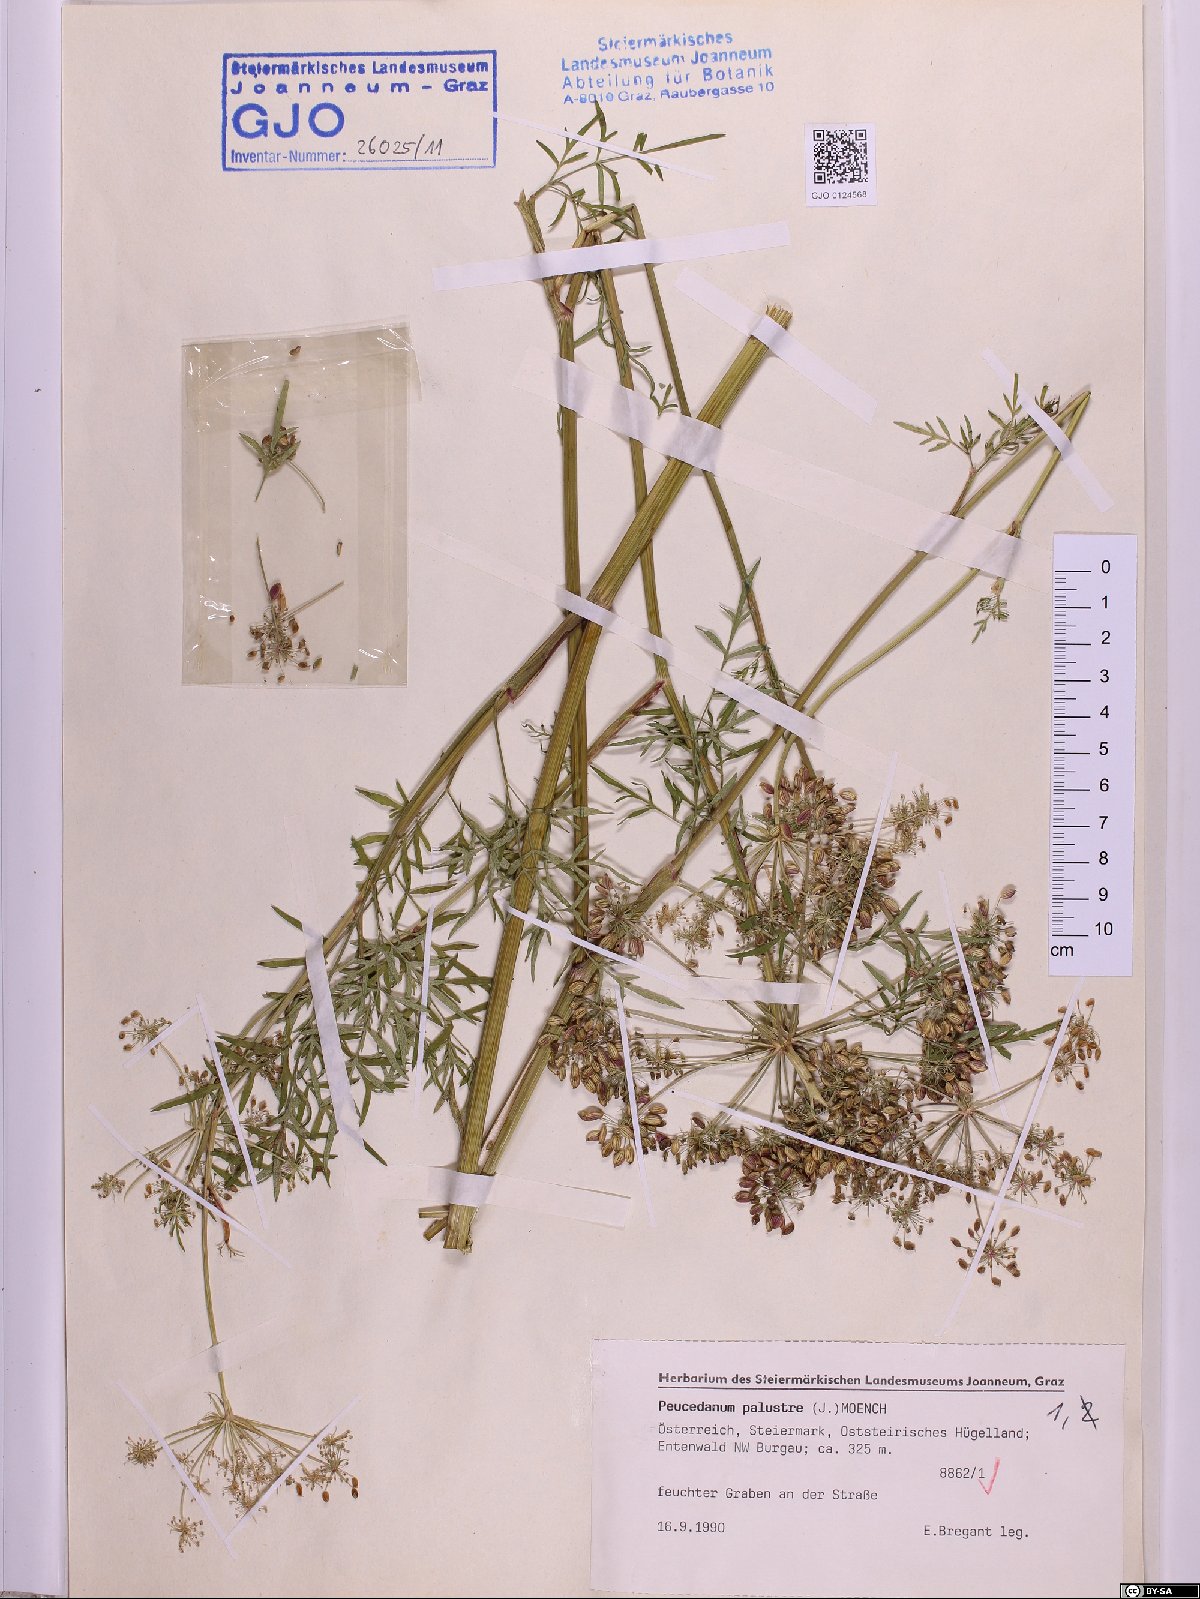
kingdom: Plantae
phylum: Tracheophyta
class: Magnoliopsida
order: Apiales
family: Apiaceae
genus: Thysselinum
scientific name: Thysselinum palustre
